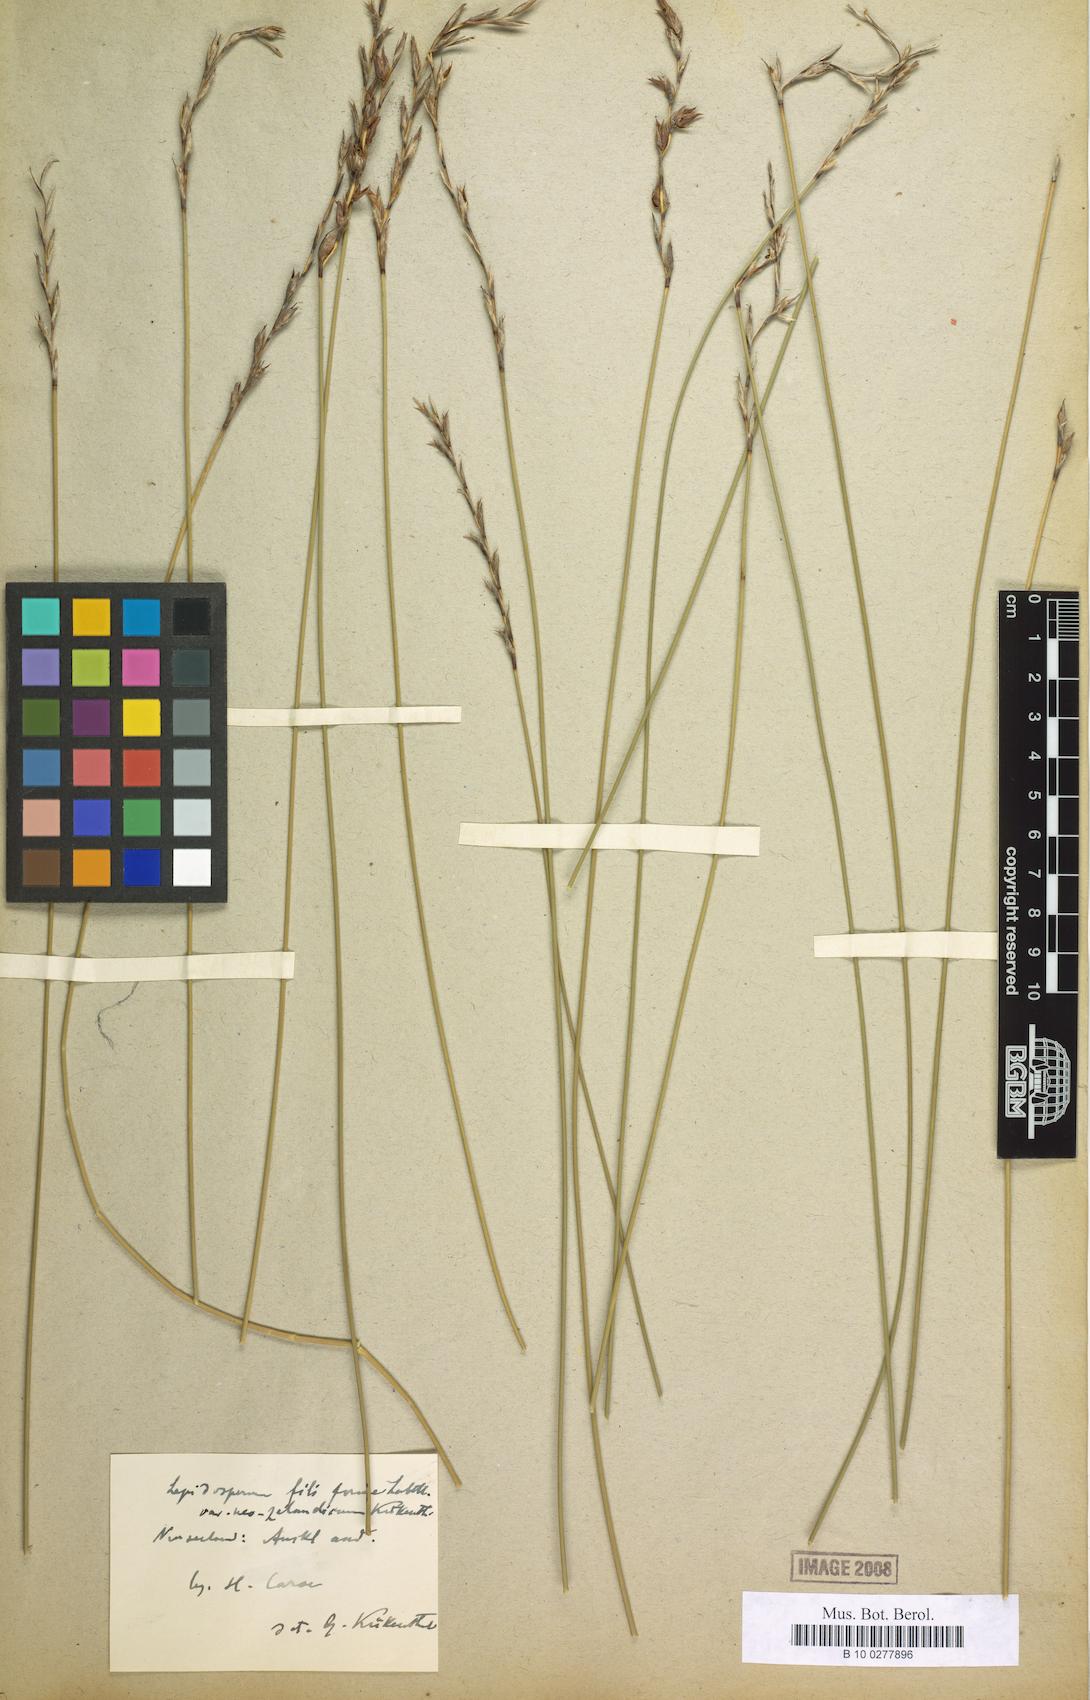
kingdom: Plantae
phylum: Tracheophyta
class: Liliopsida
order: Poales
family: Cyperaceae
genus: Lepidosperma
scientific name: Lepidosperma filiforme
